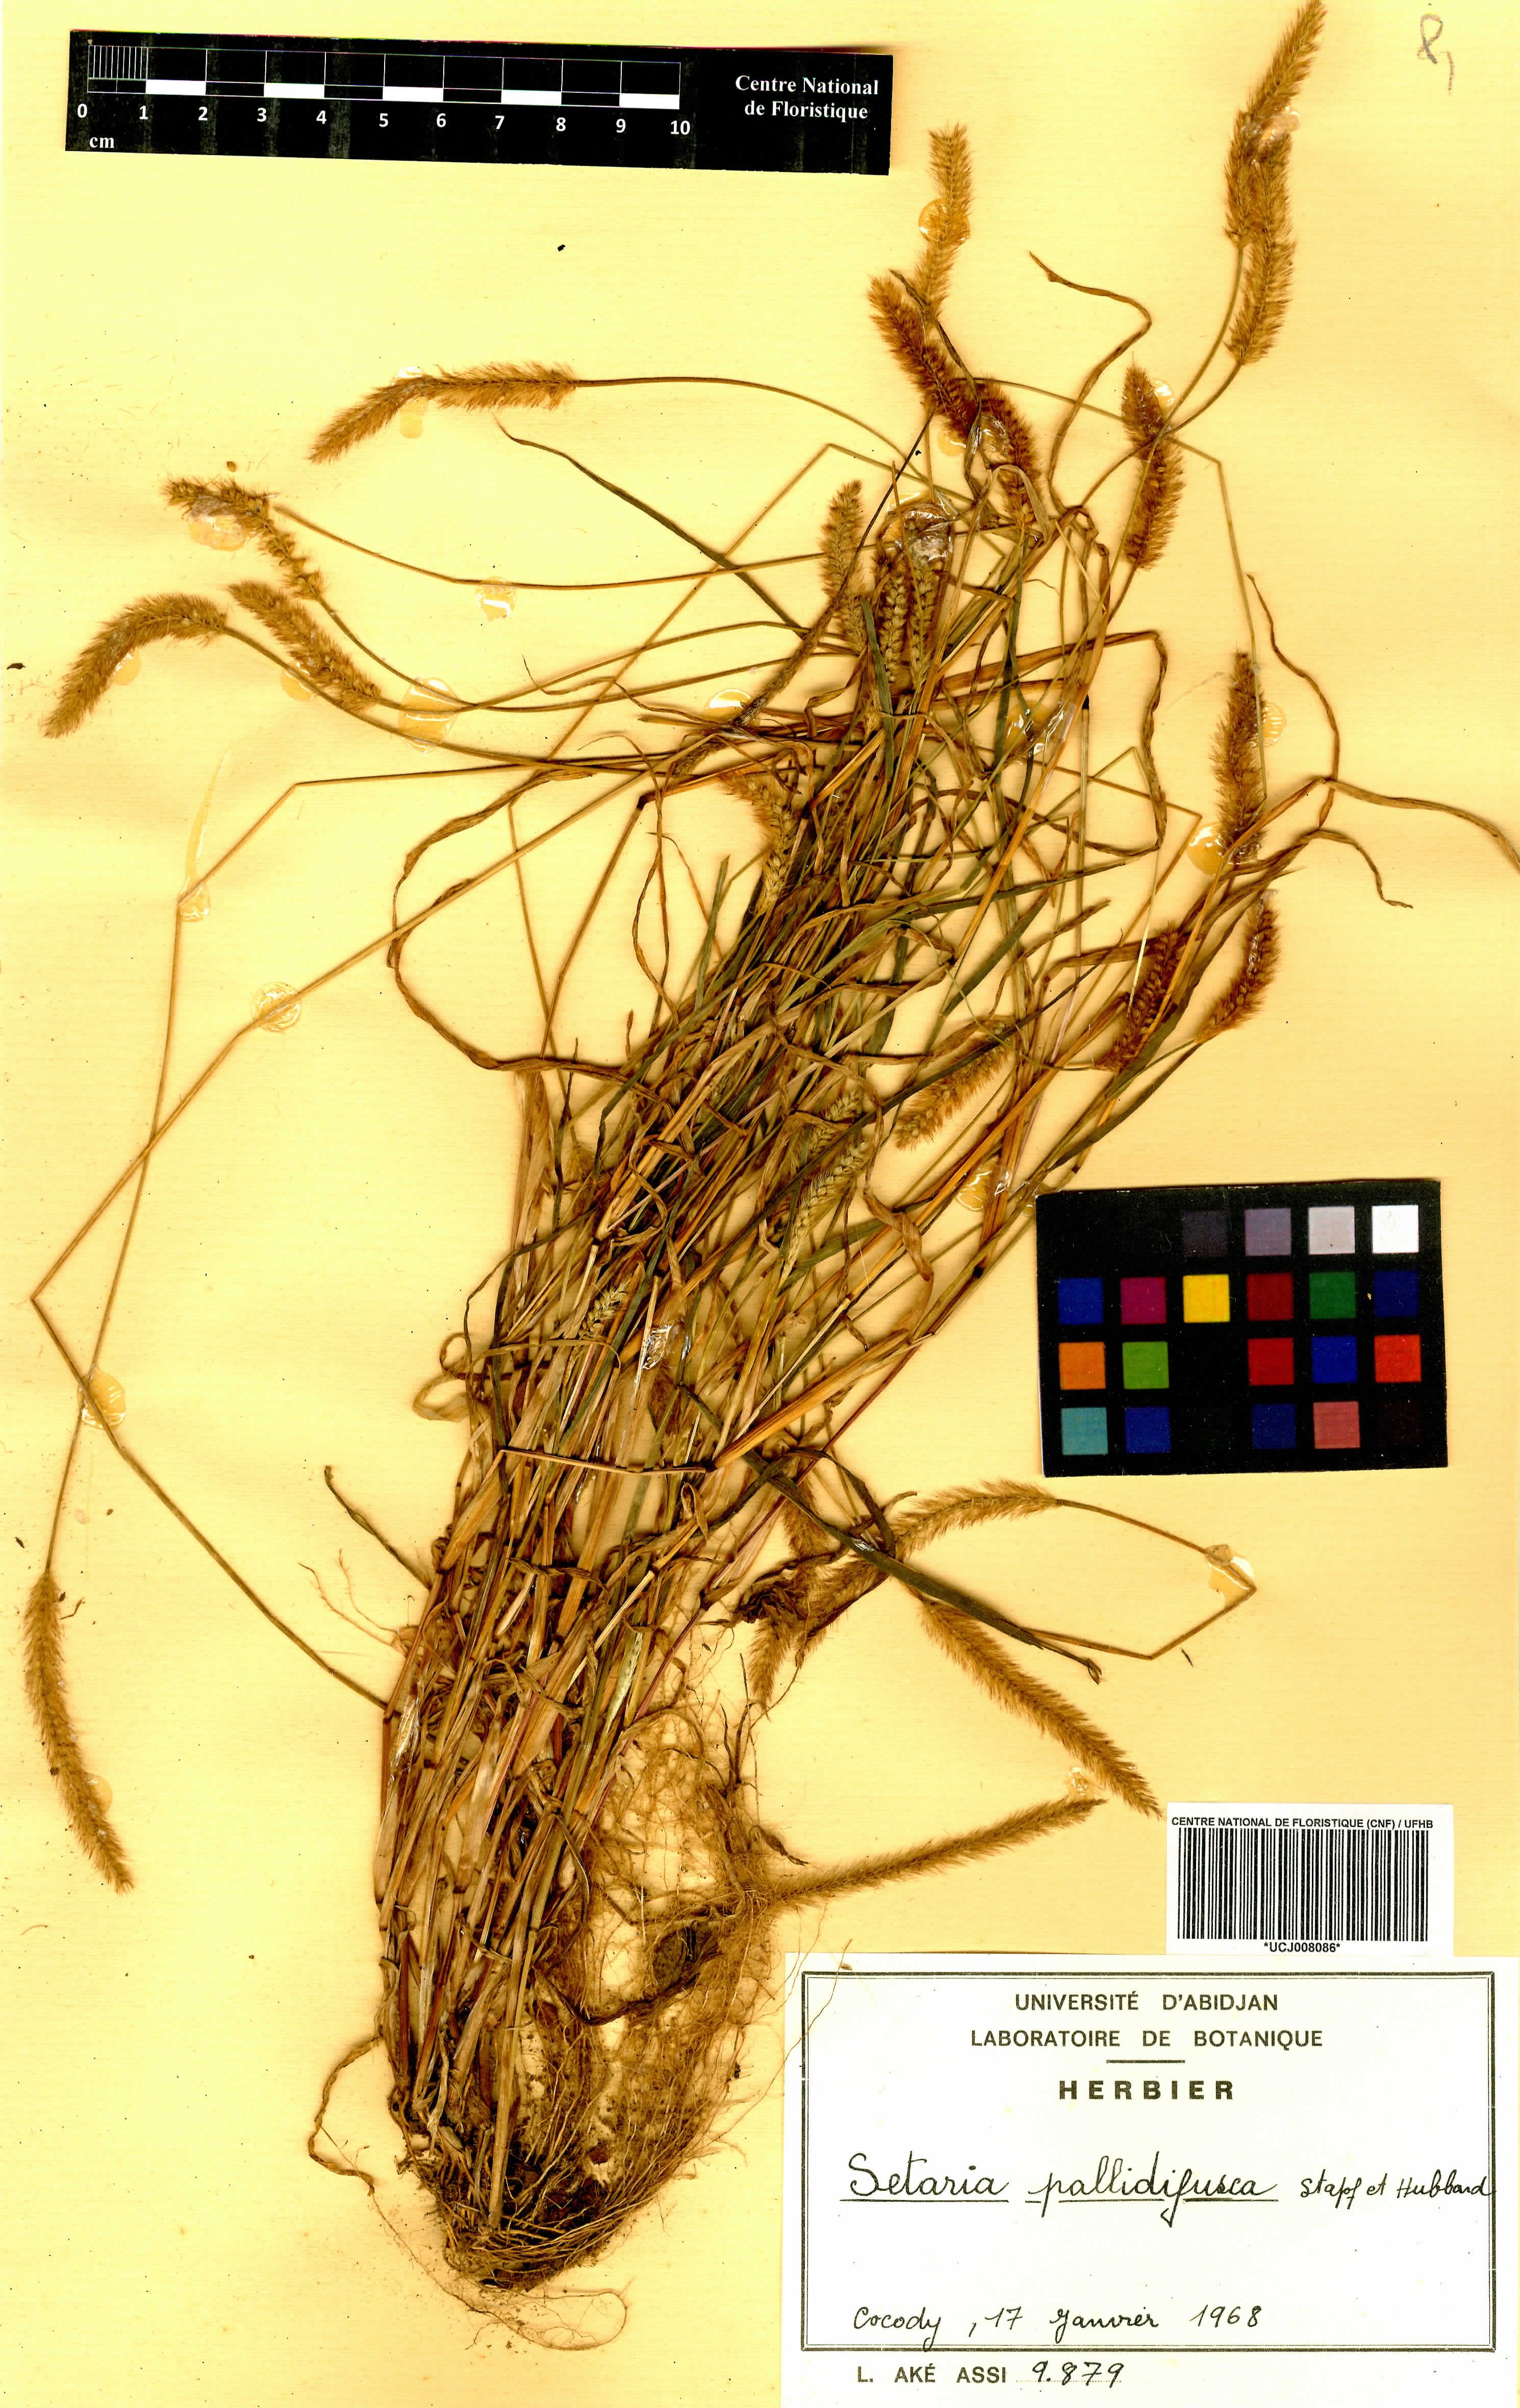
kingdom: Plantae
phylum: Tracheophyta
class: Liliopsida
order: Poales
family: Poaceae
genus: Setaria
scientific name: Setaria italica
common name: Foxtail bristle-grass
